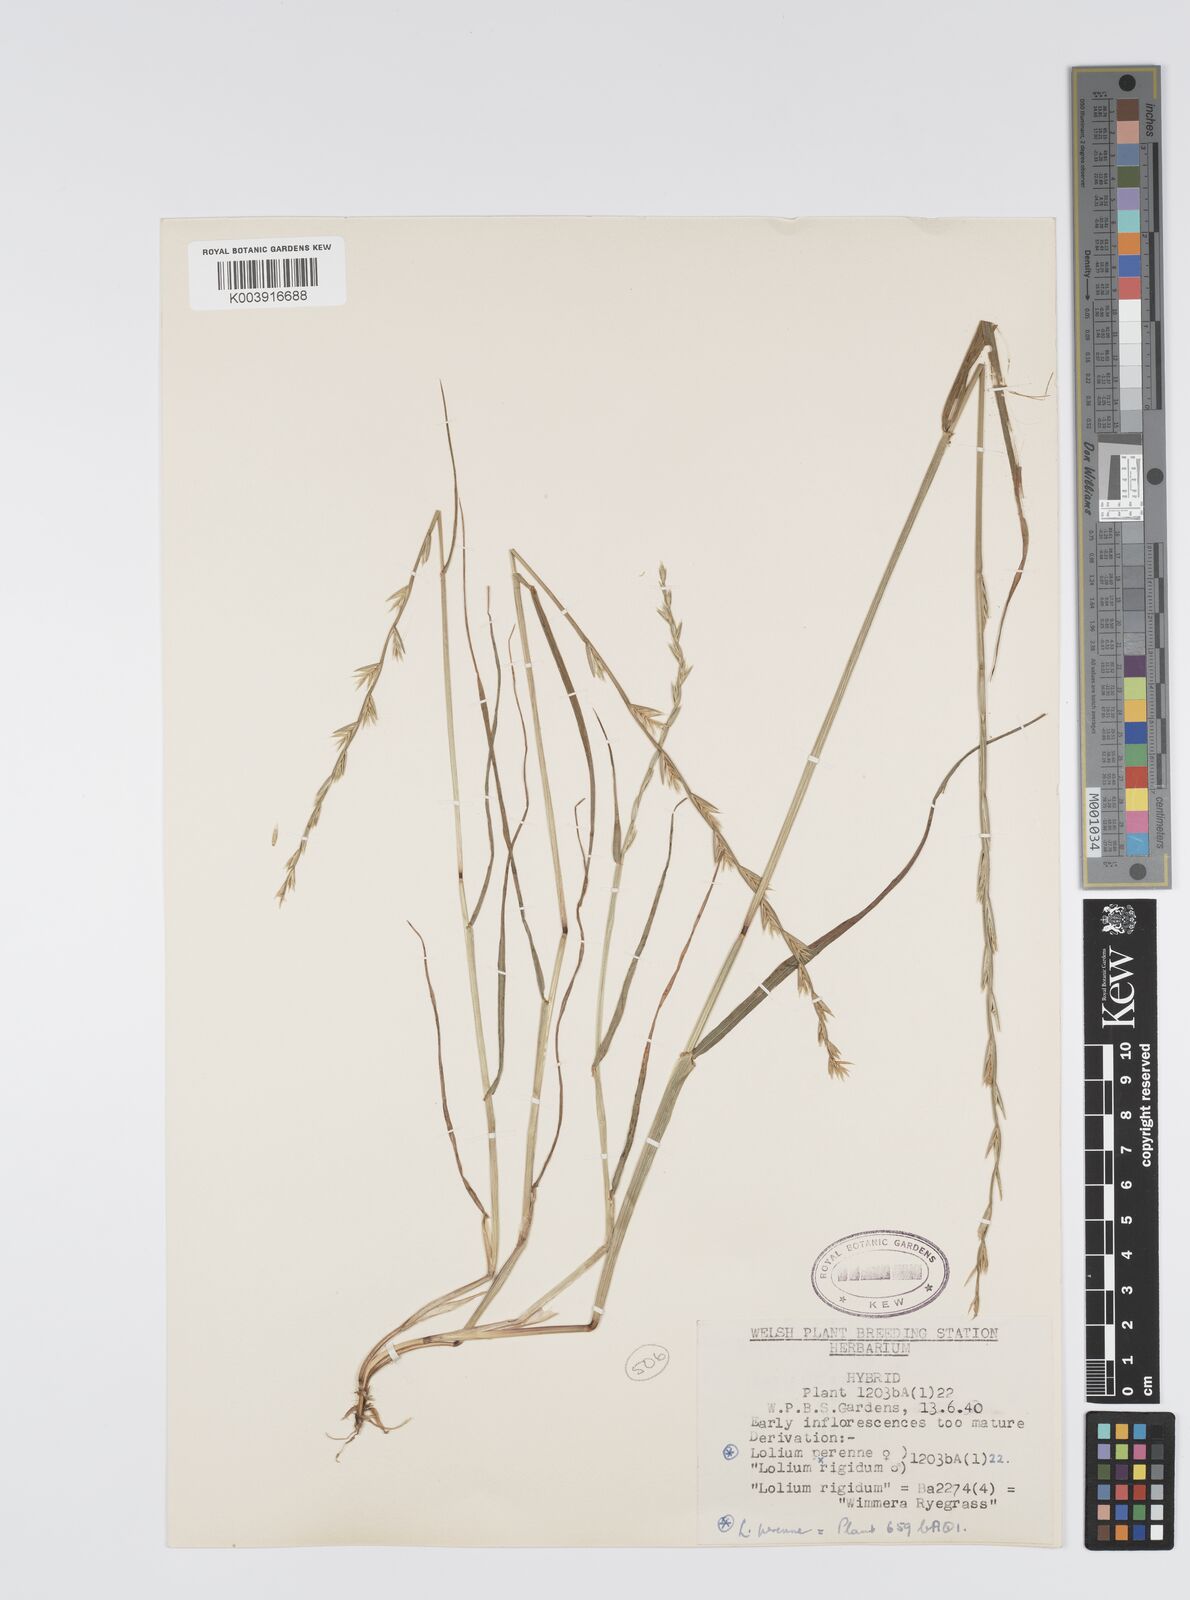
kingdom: Plantae
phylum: Tracheophyta
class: Liliopsida
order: Poales
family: Poaceae
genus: Lolium
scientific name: Lolium perenne
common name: Perennial ryegrass
